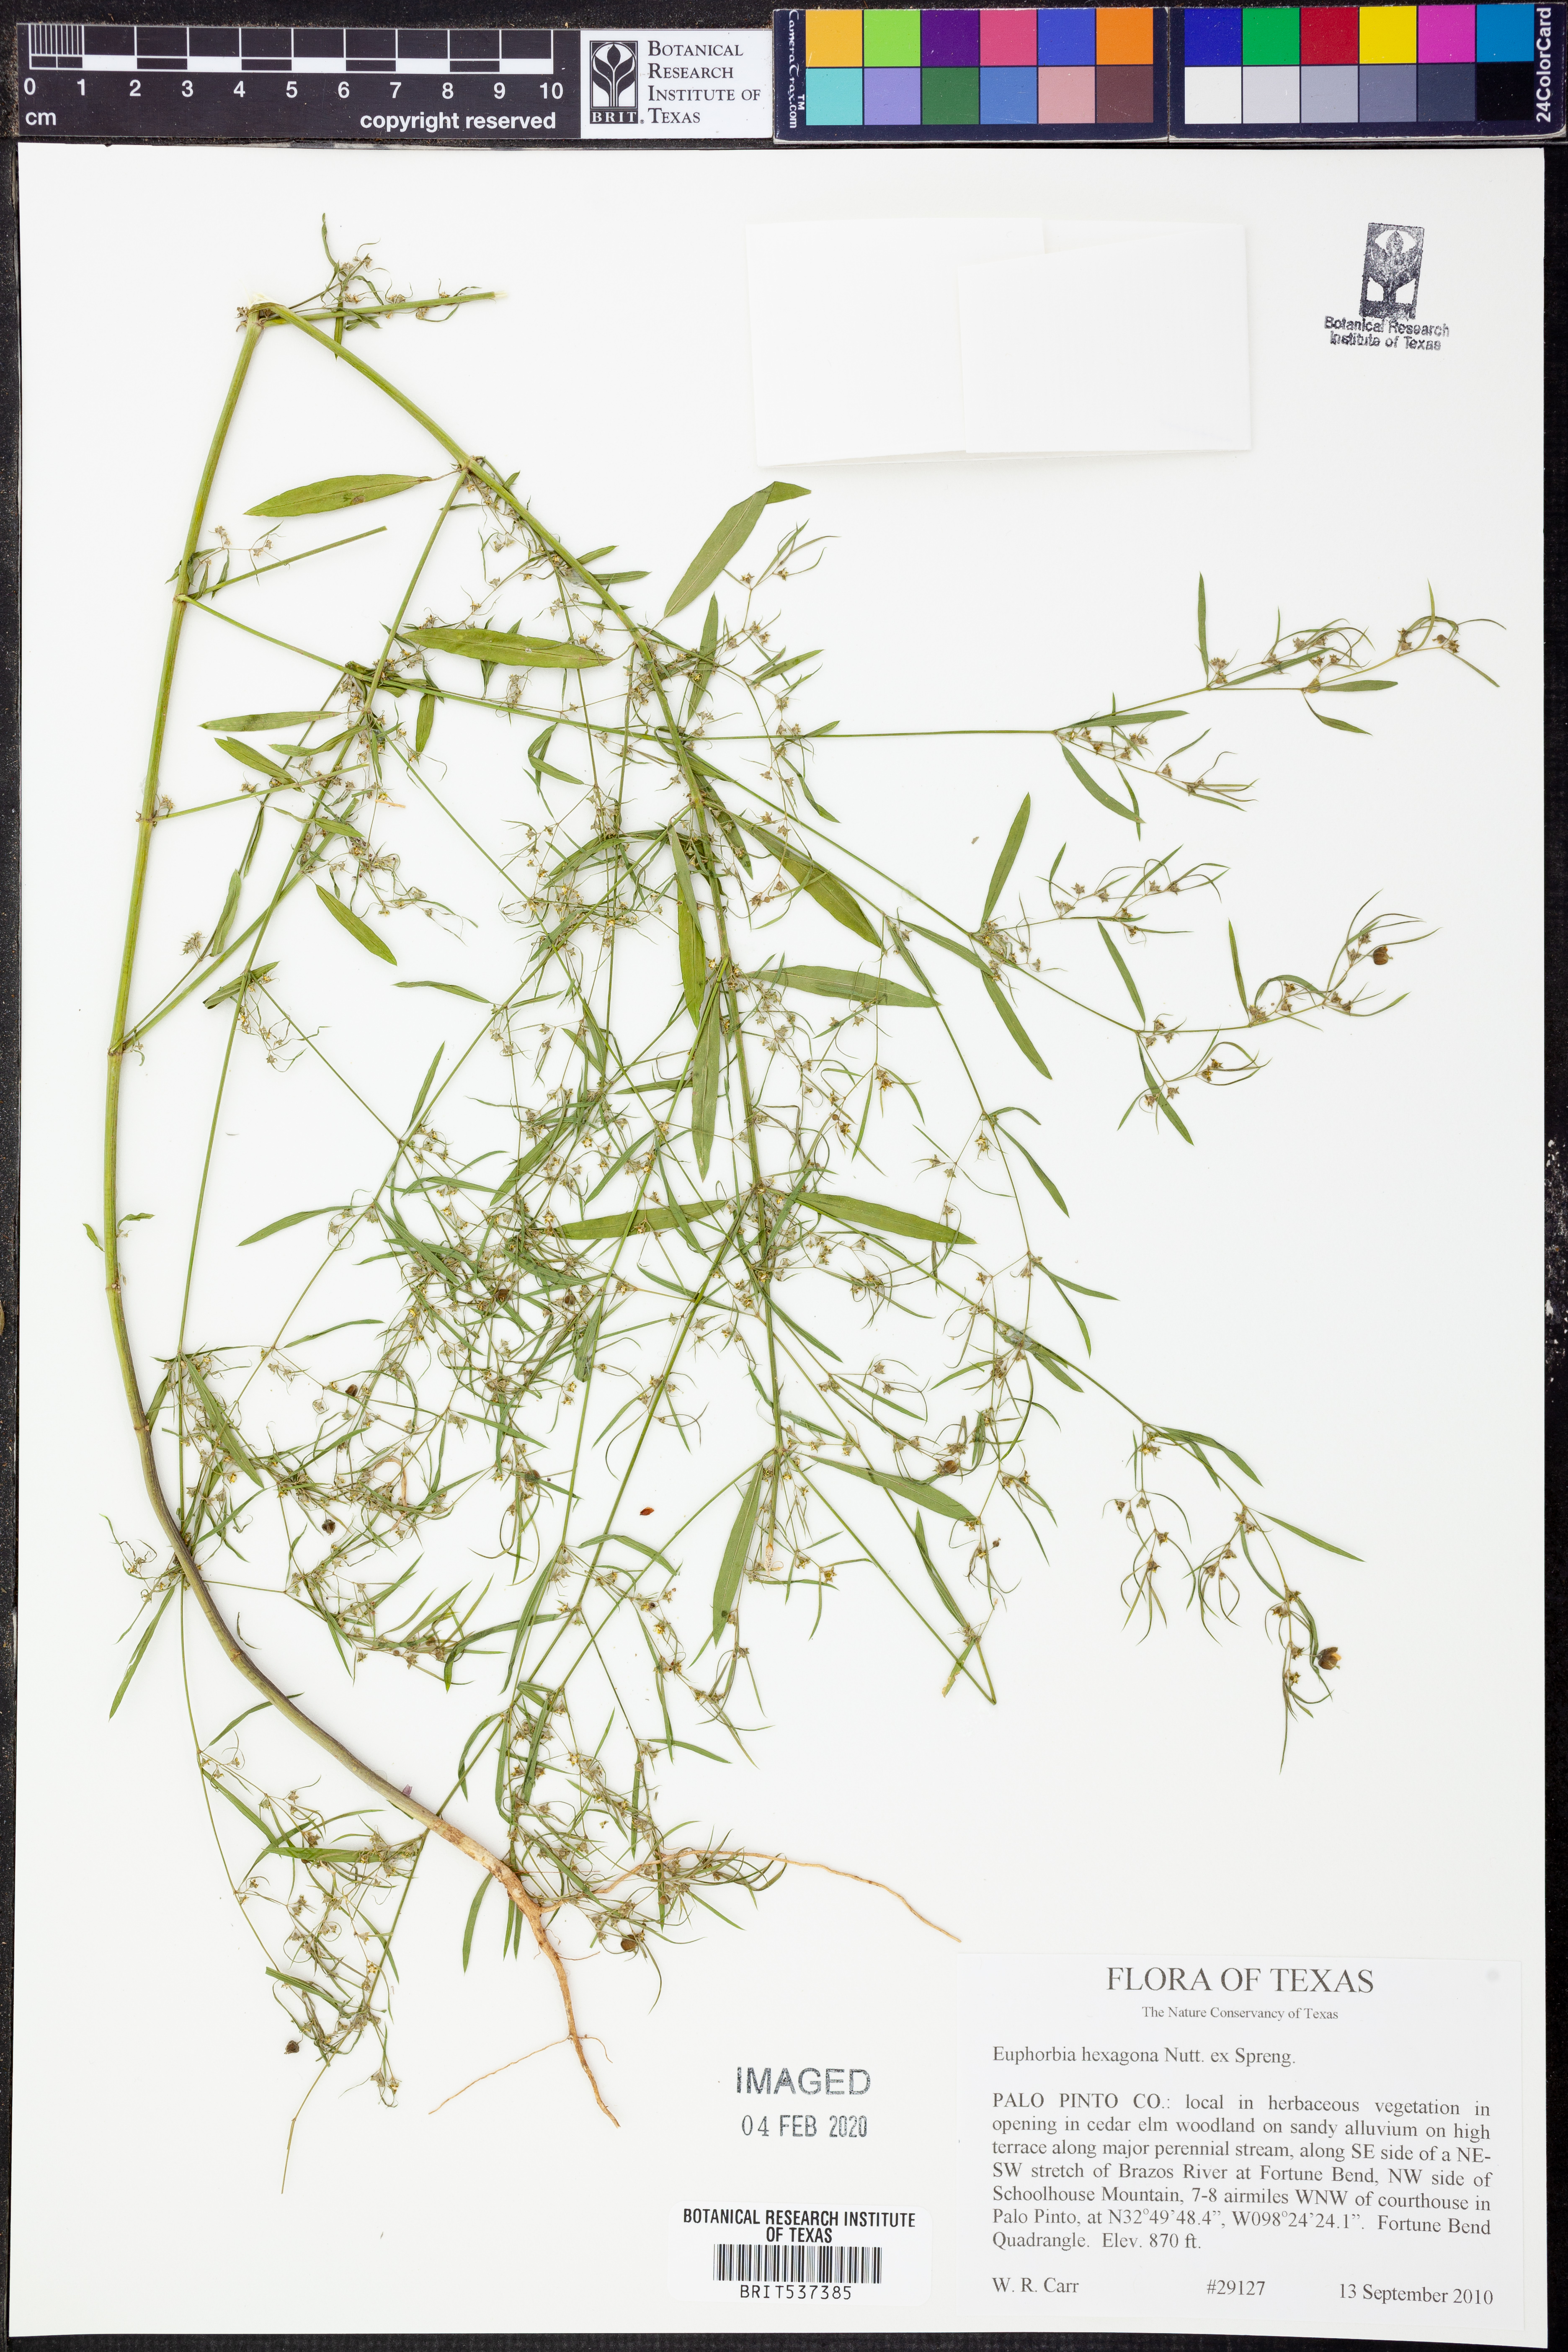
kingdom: Plantae
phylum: Tracheophyta
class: Magnoliopsida
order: Malpighiales
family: Euphorbiaceae
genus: Euphorbia
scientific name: Euphorbia hexagona
